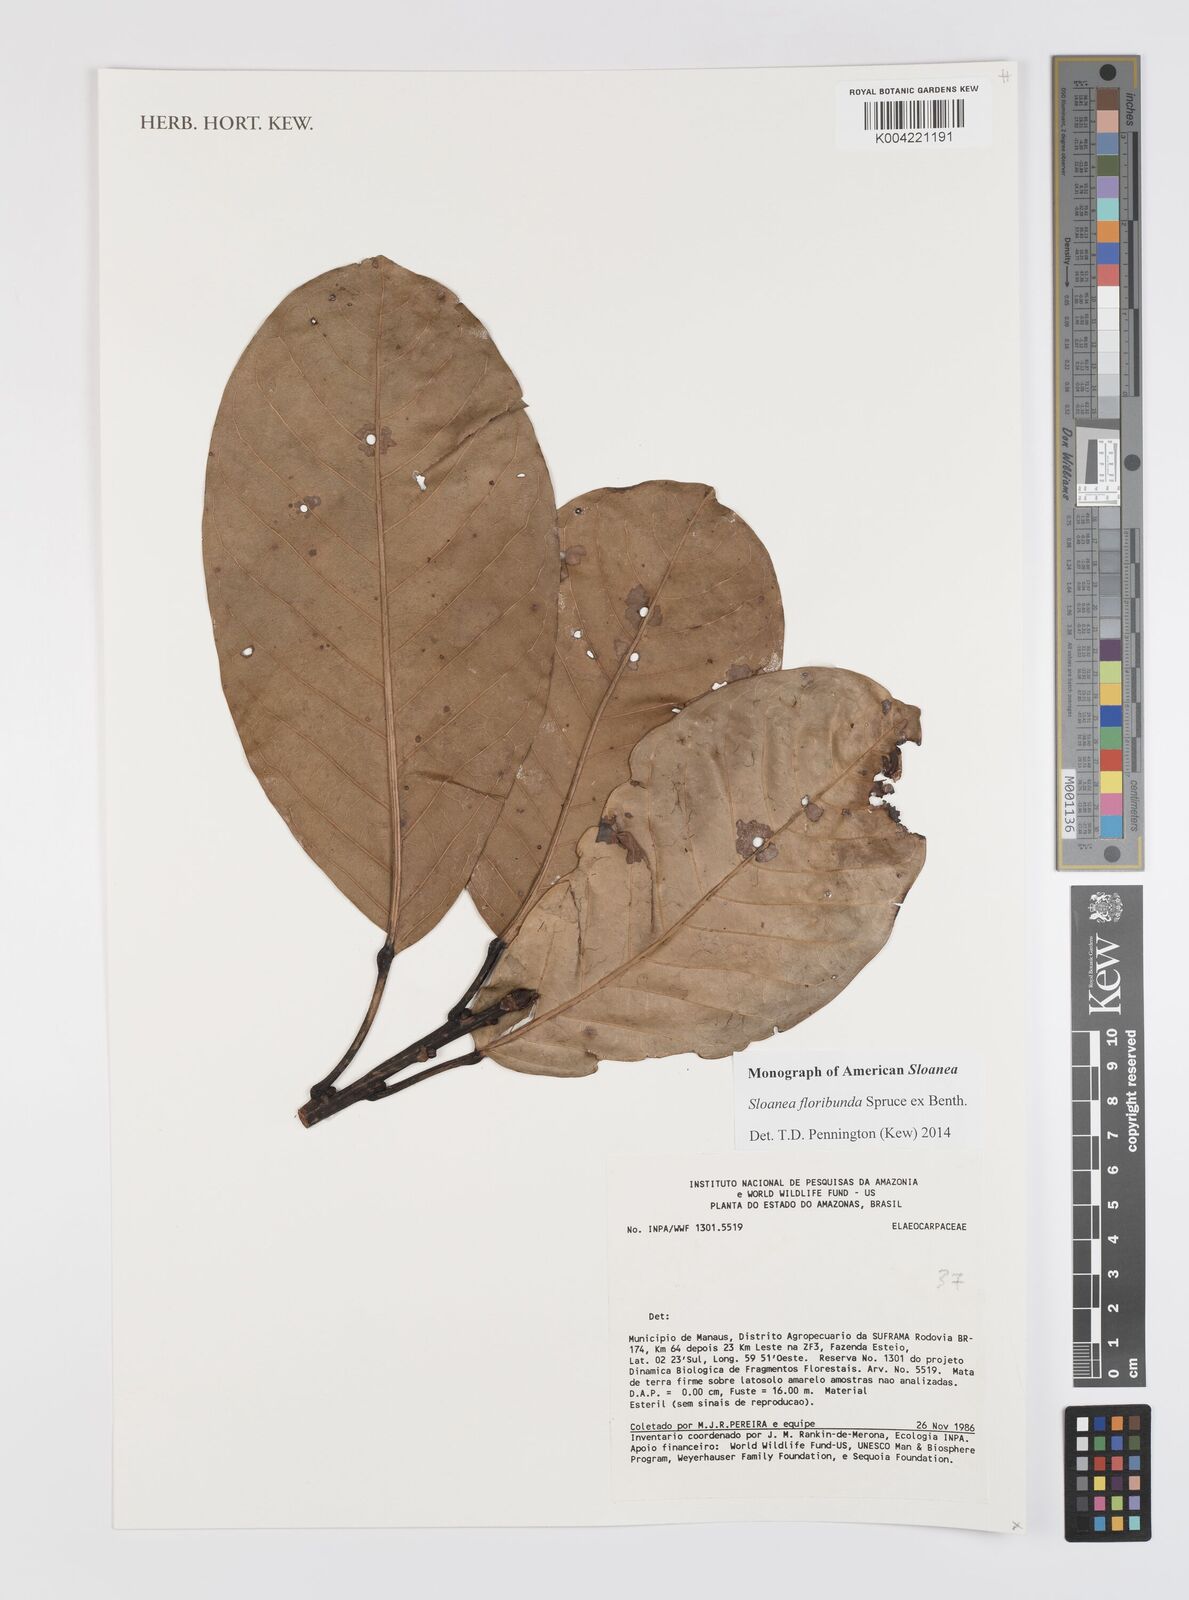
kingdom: Plantae
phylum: Tracheophyta
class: Magnoliopsida
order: Oxalidales
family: Elaeocarpaceae
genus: Sloanea
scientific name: Sloanea floribunda
